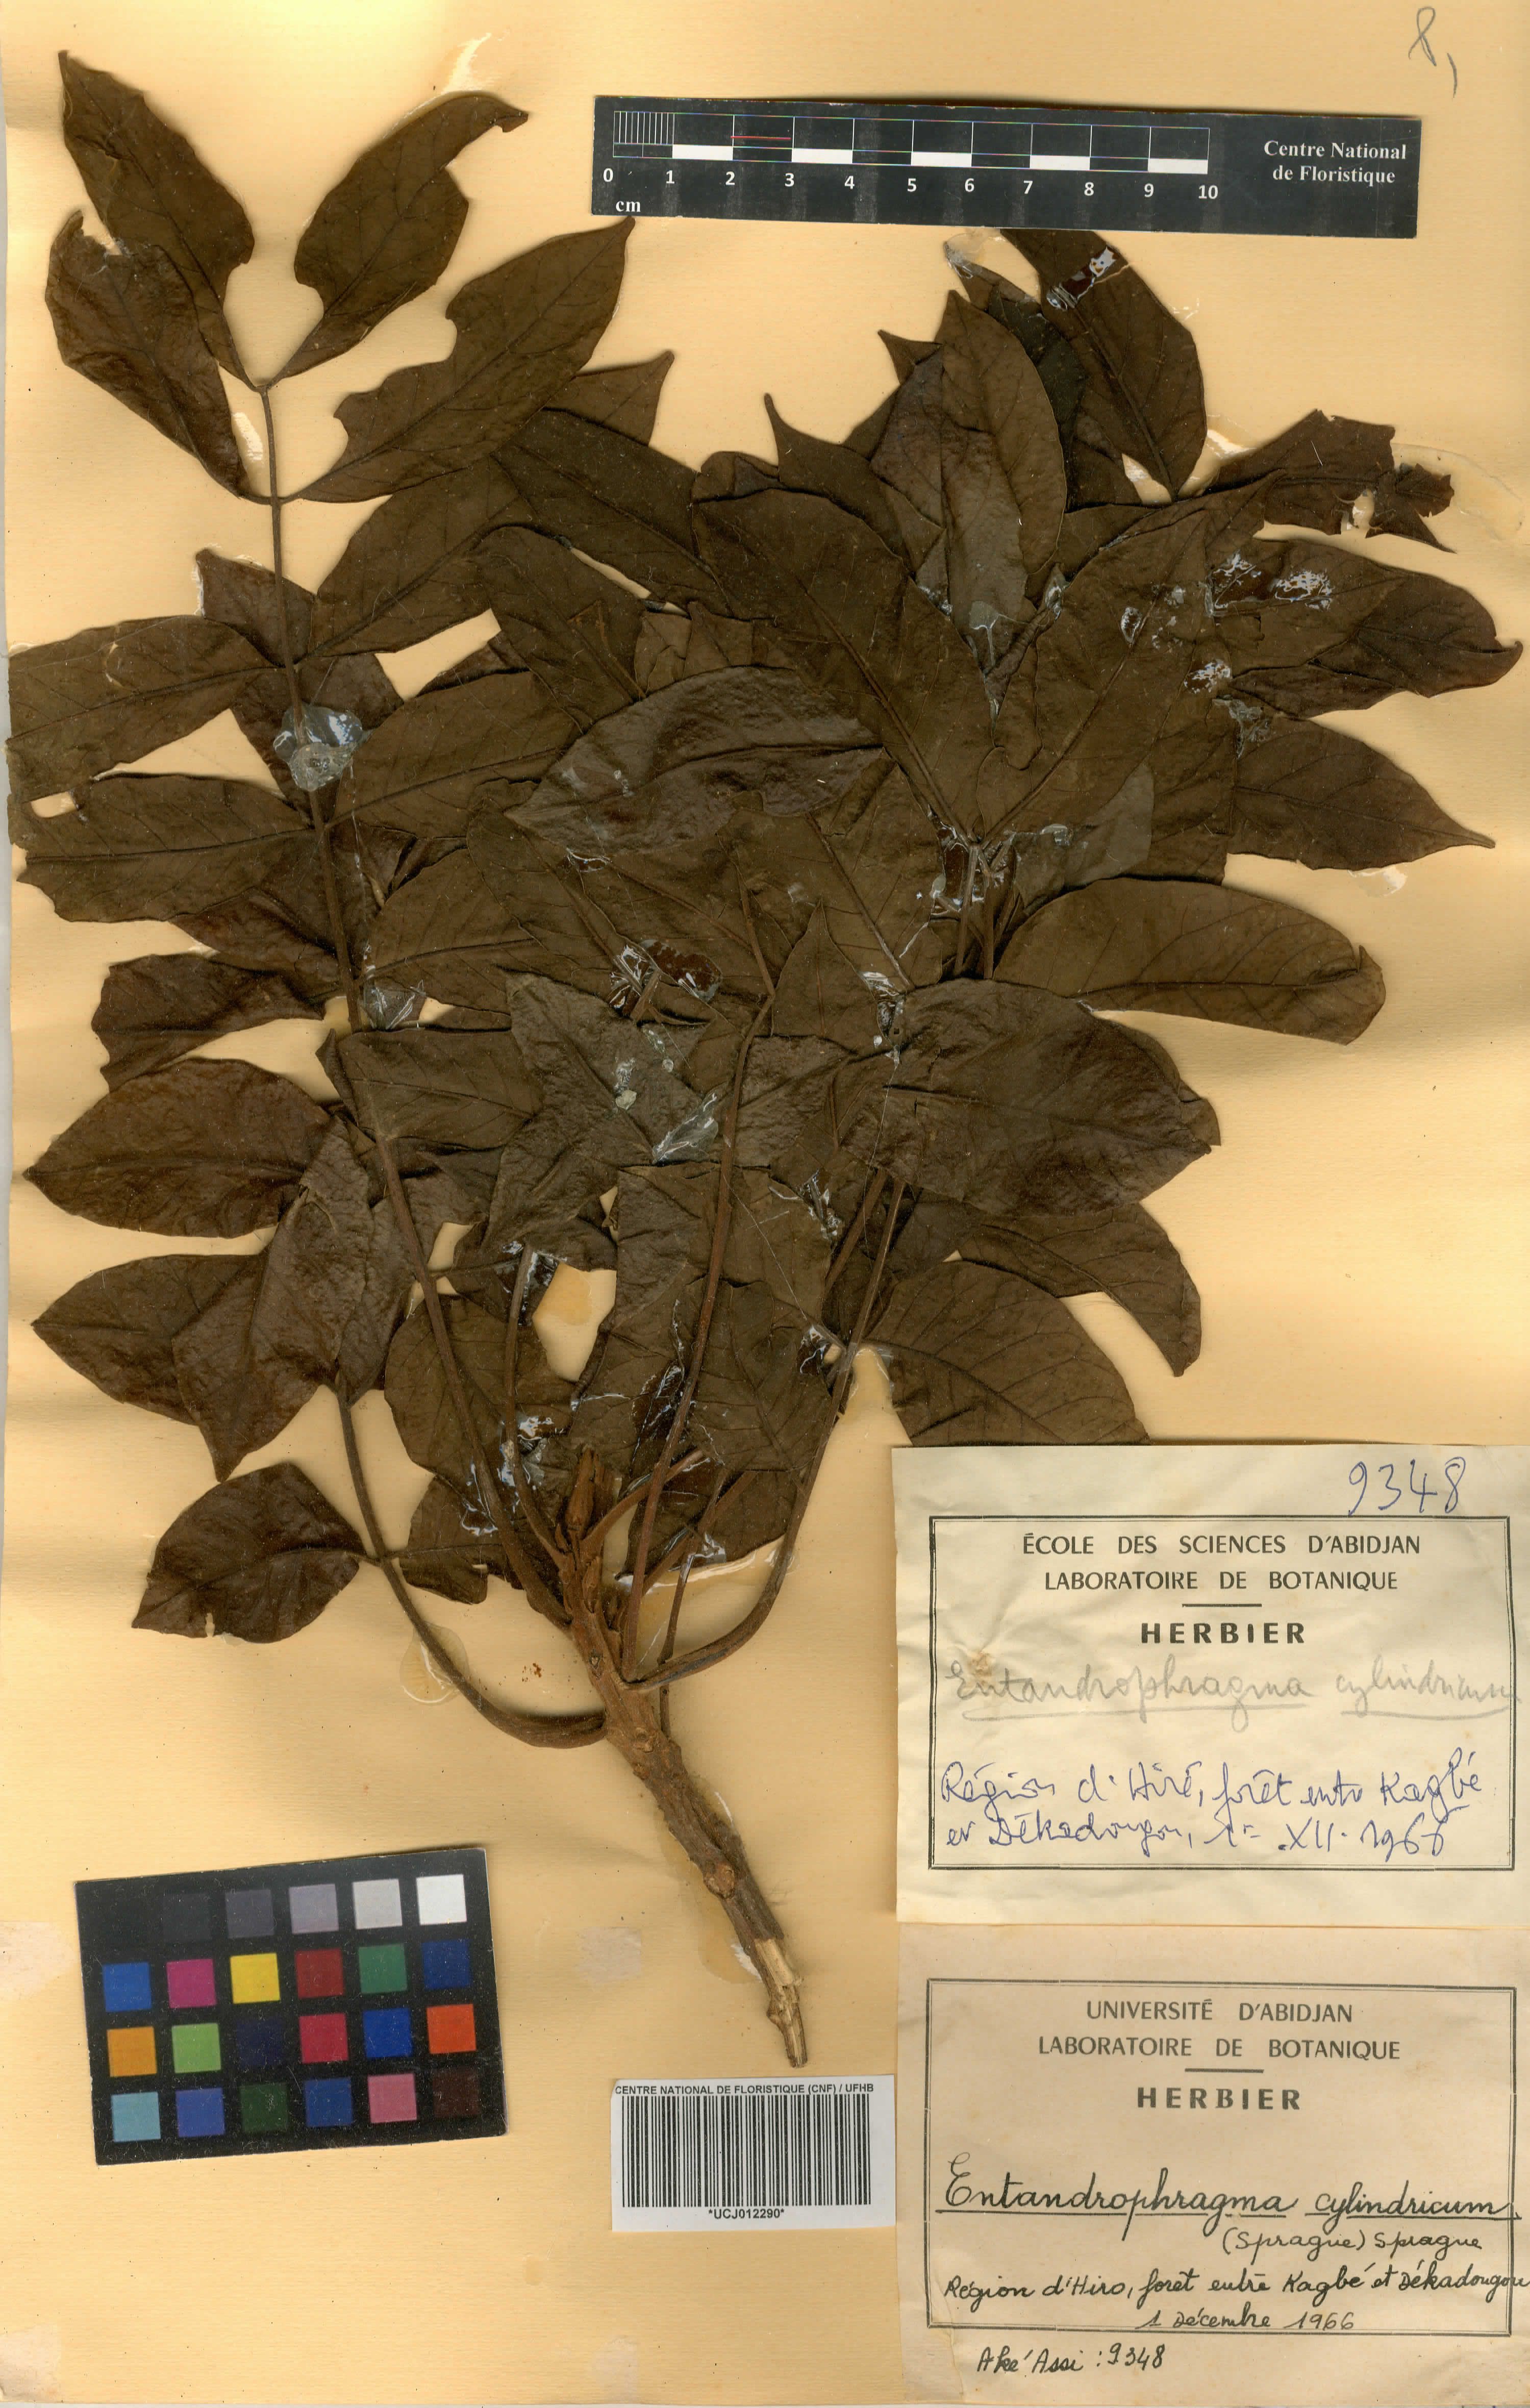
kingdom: Plantae
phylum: Tracheophyta
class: Magnoliopsida
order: Sapindales
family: Meliaceae
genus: Entandrophragma
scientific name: Entandrophragma cylindricum
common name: Sapele
